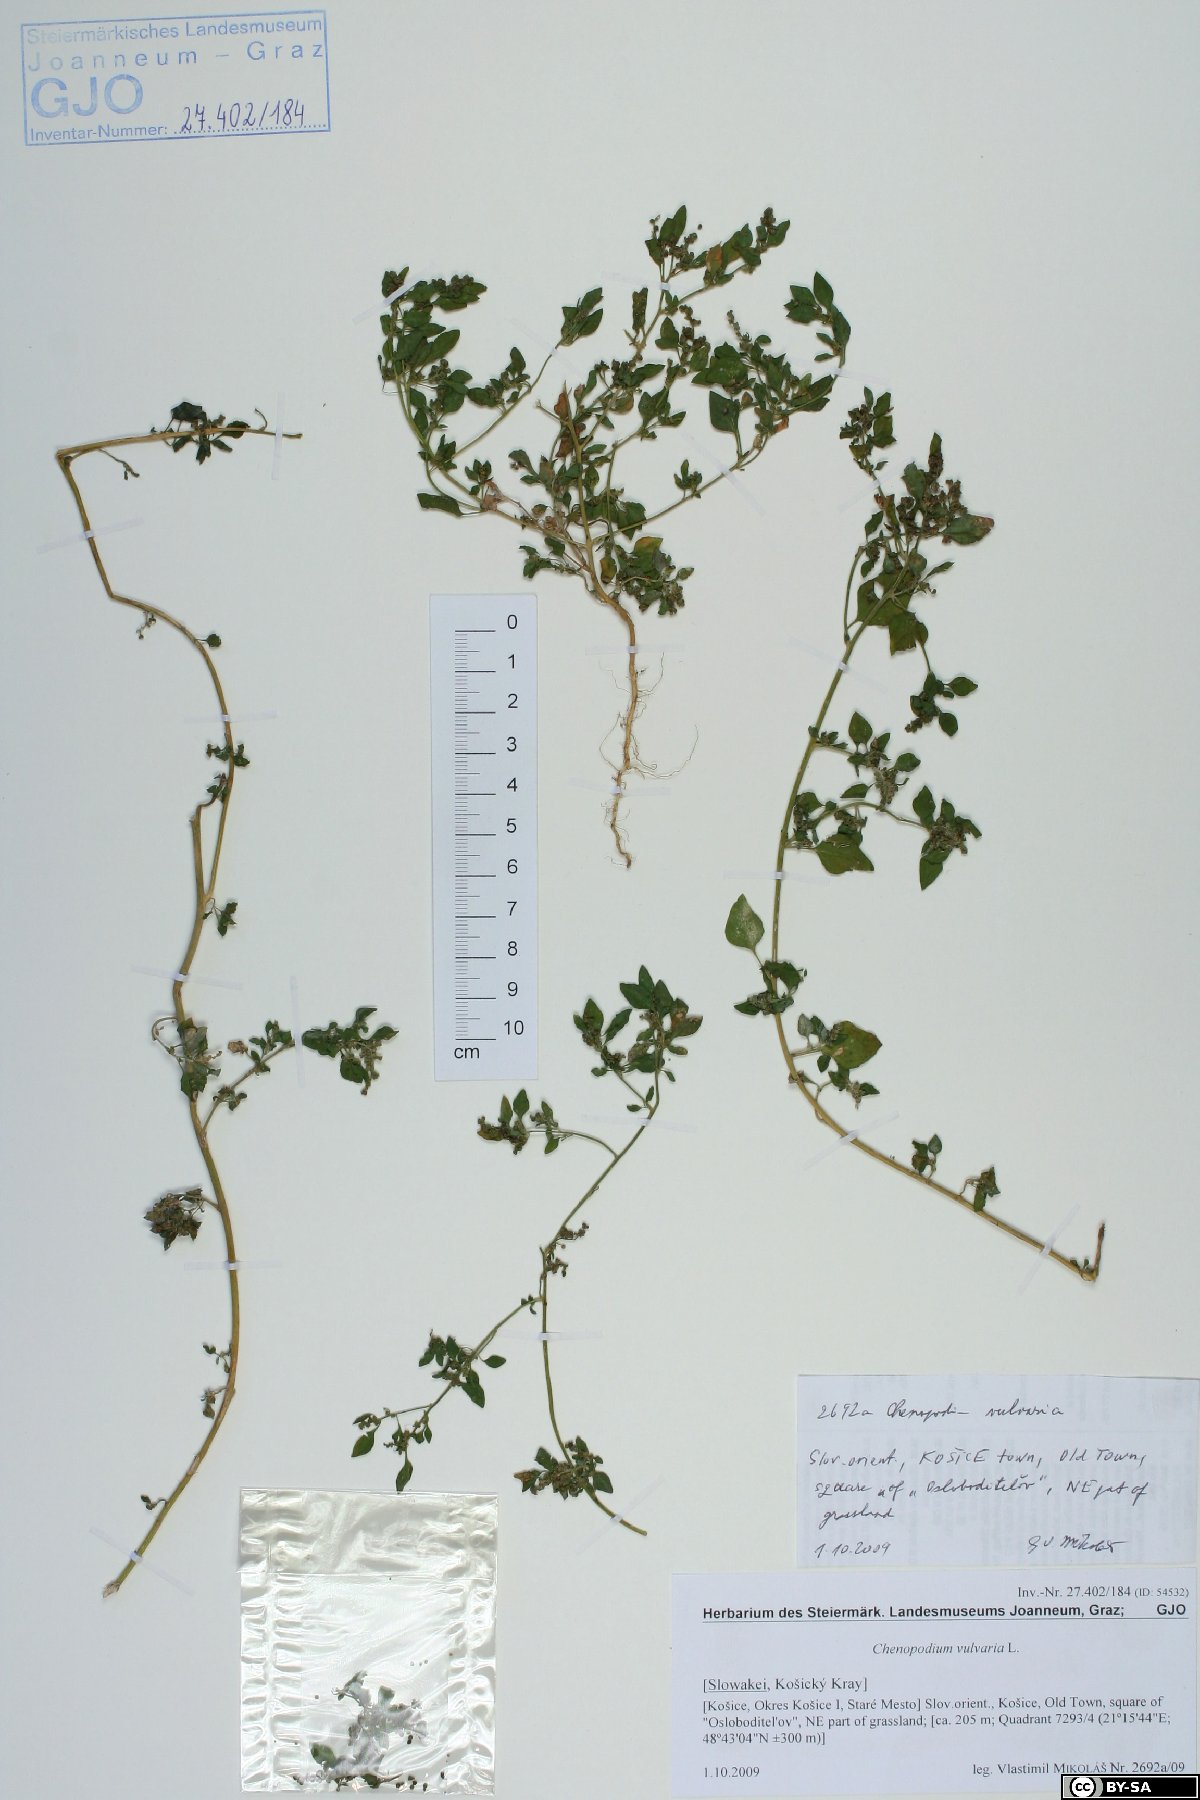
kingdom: Plantae
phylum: Tracheophyta
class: Magnoliopsida
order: Caryophyllales
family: Amaranthaceae
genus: Chenopodium
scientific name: Chenopodium vulvaria
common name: Stinking goosefoot
